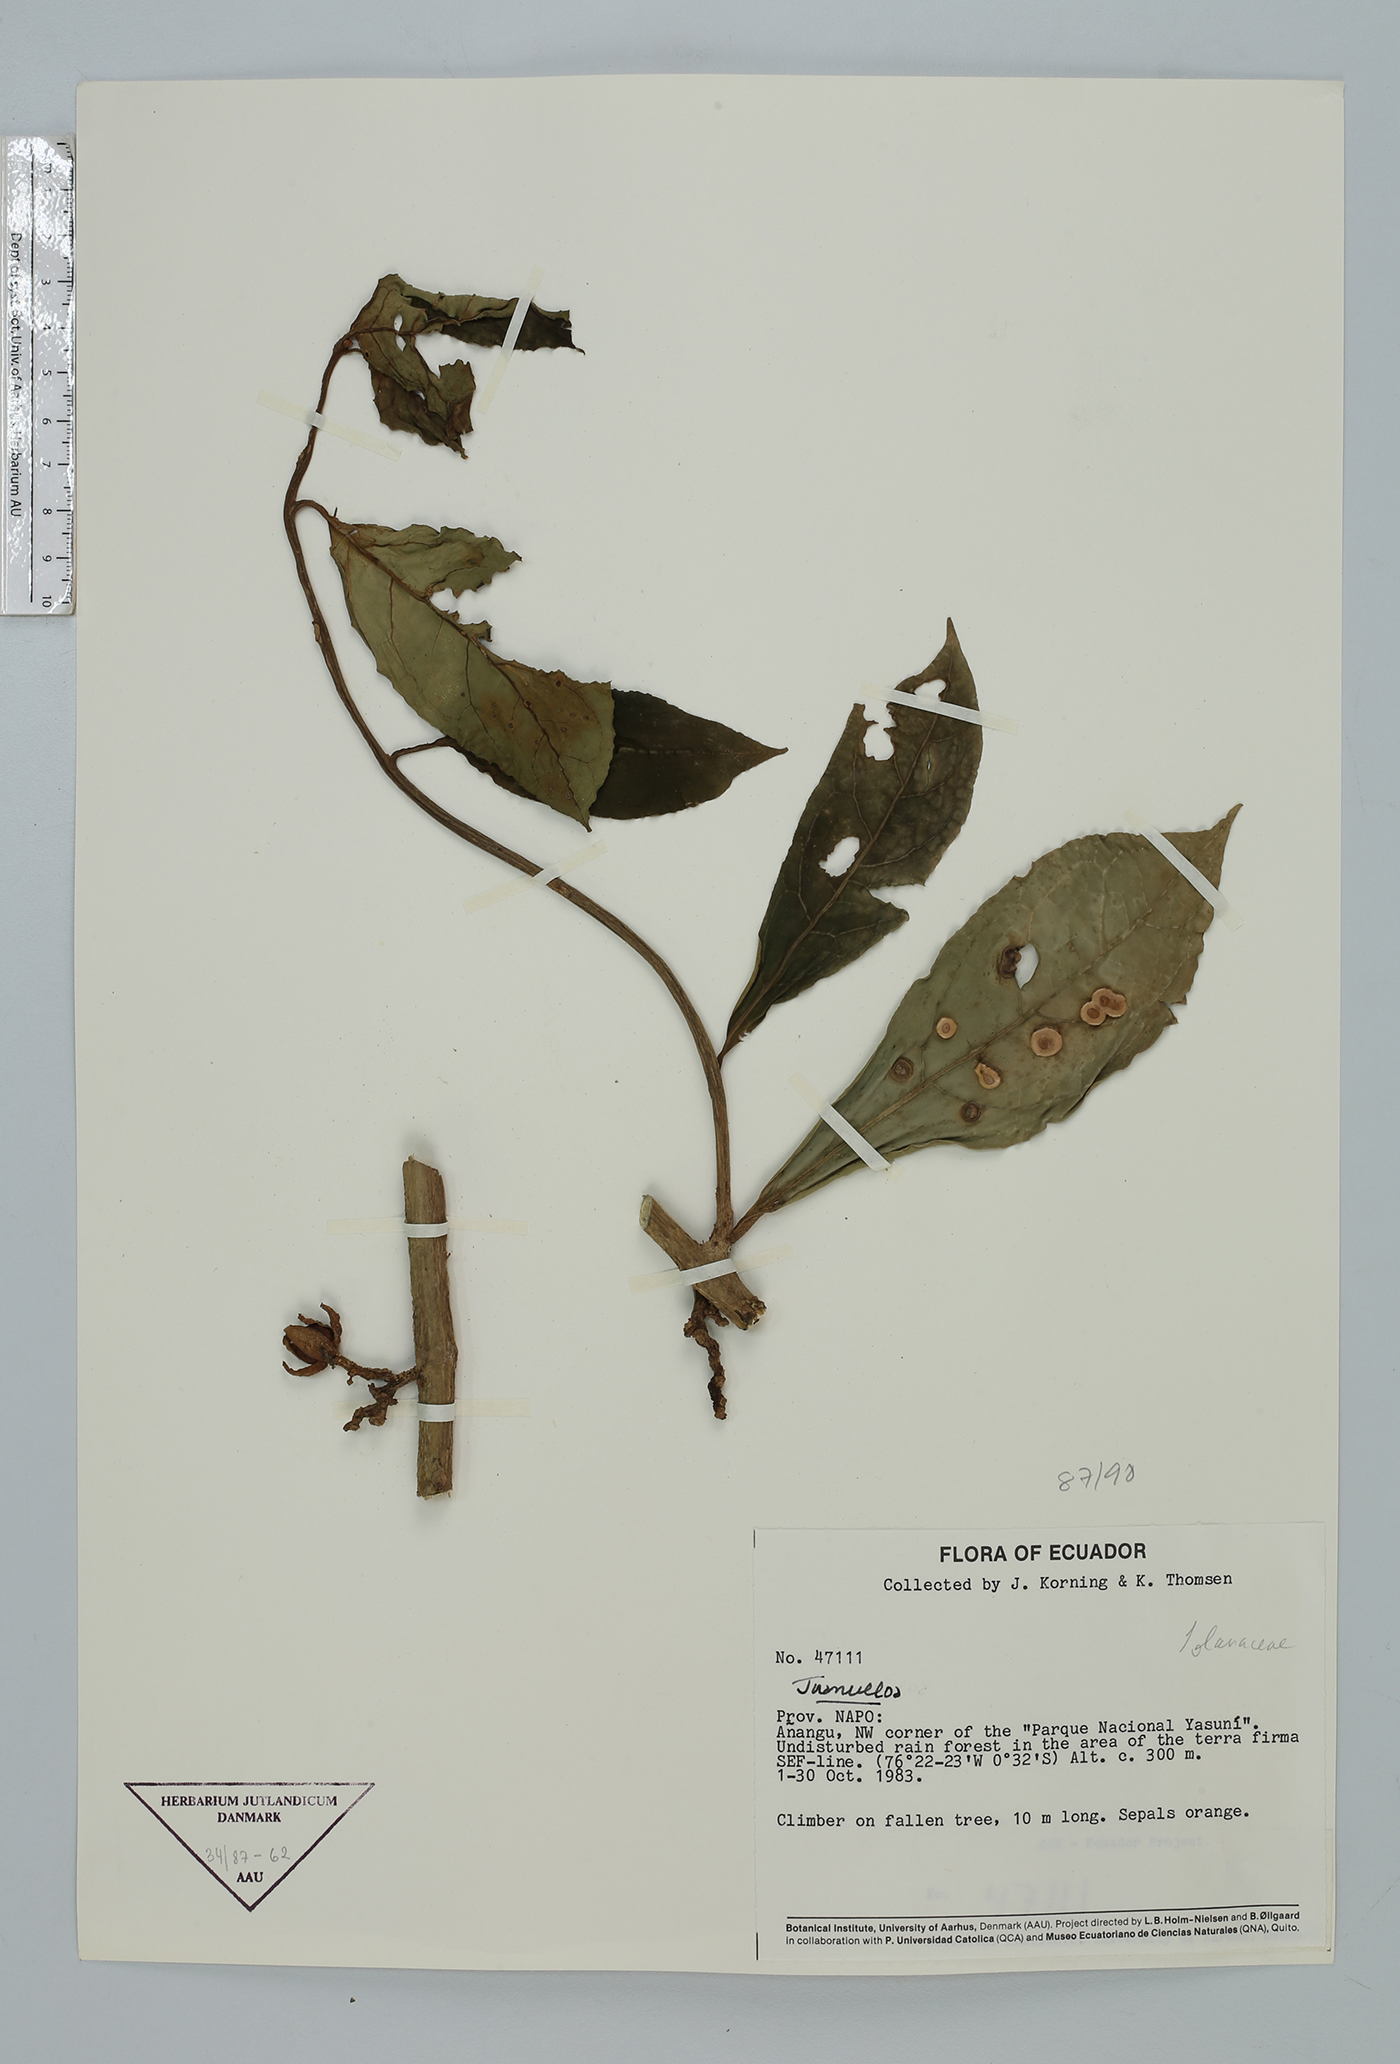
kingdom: Plantae
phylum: Tracheophyta
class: Magnoliopsida
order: Solanales
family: Solanaceae
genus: Hawkesiophyton
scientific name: Hawkesiophyton ochraceum
